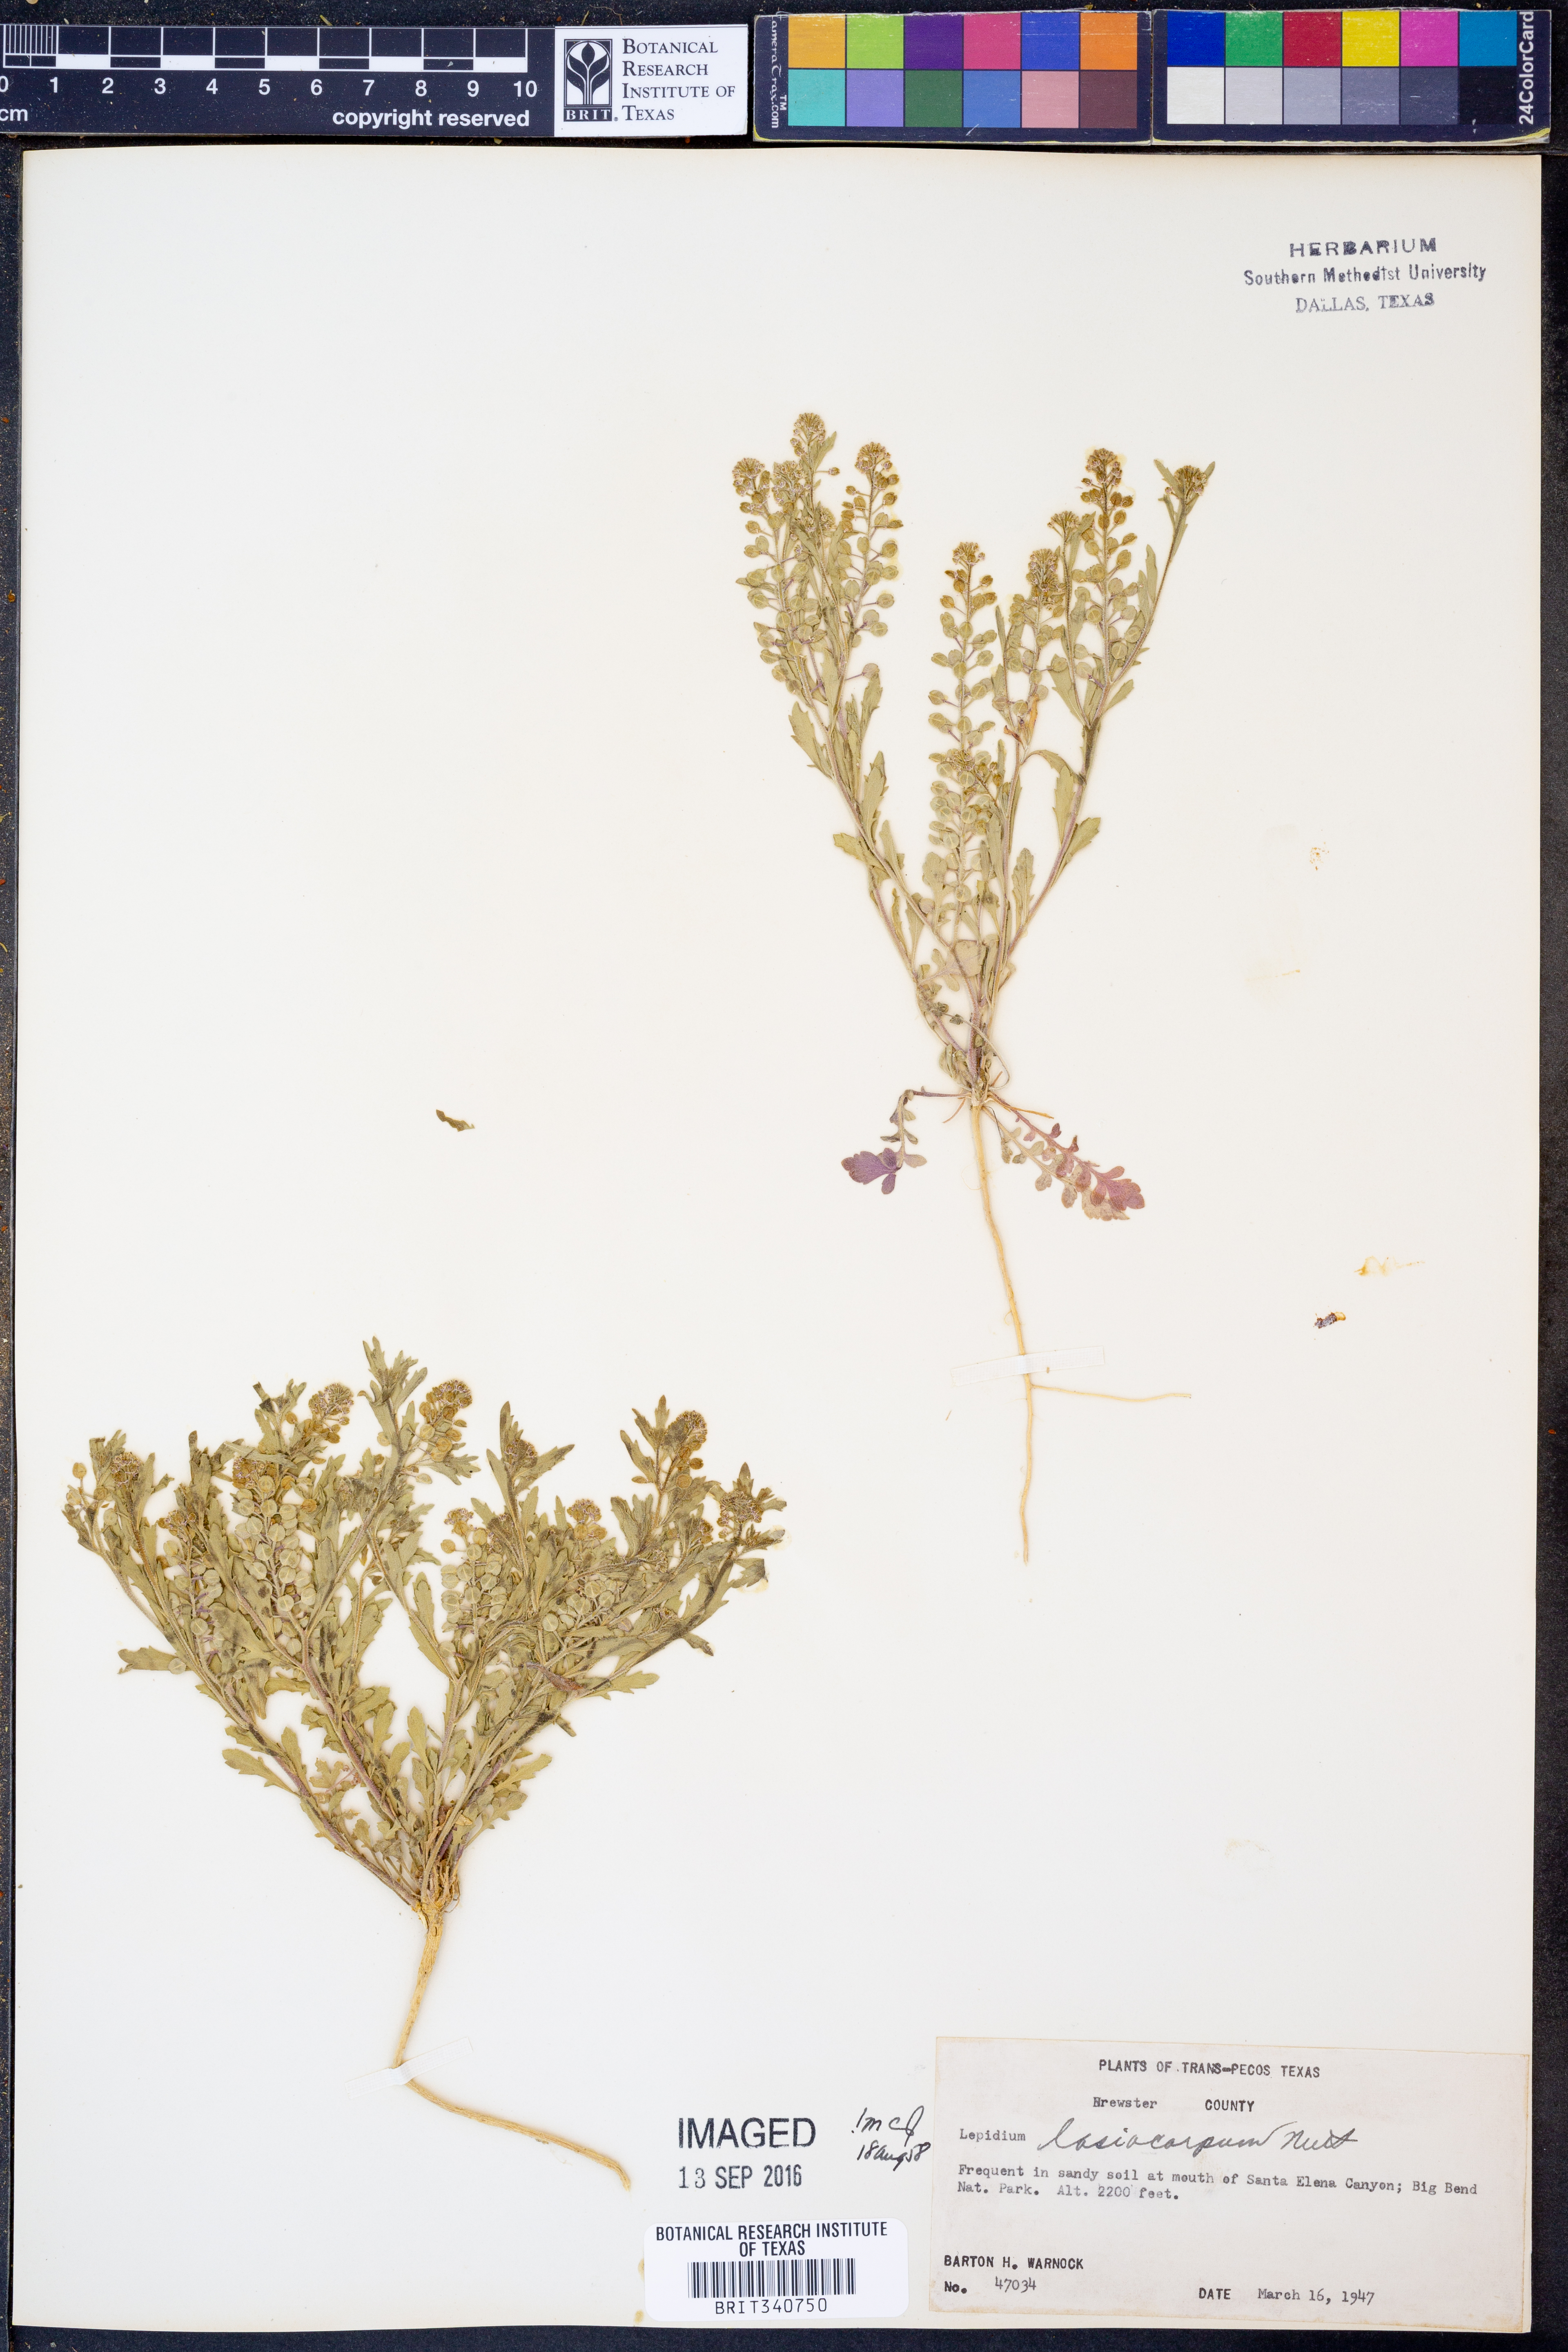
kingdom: Plantae
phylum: Tracheophyta
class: Magnoliopsida
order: Brassicales
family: Brassicaceae
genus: Lepidium
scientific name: Lepidium lasiocarpum
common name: Hairy-pod pepperwort
